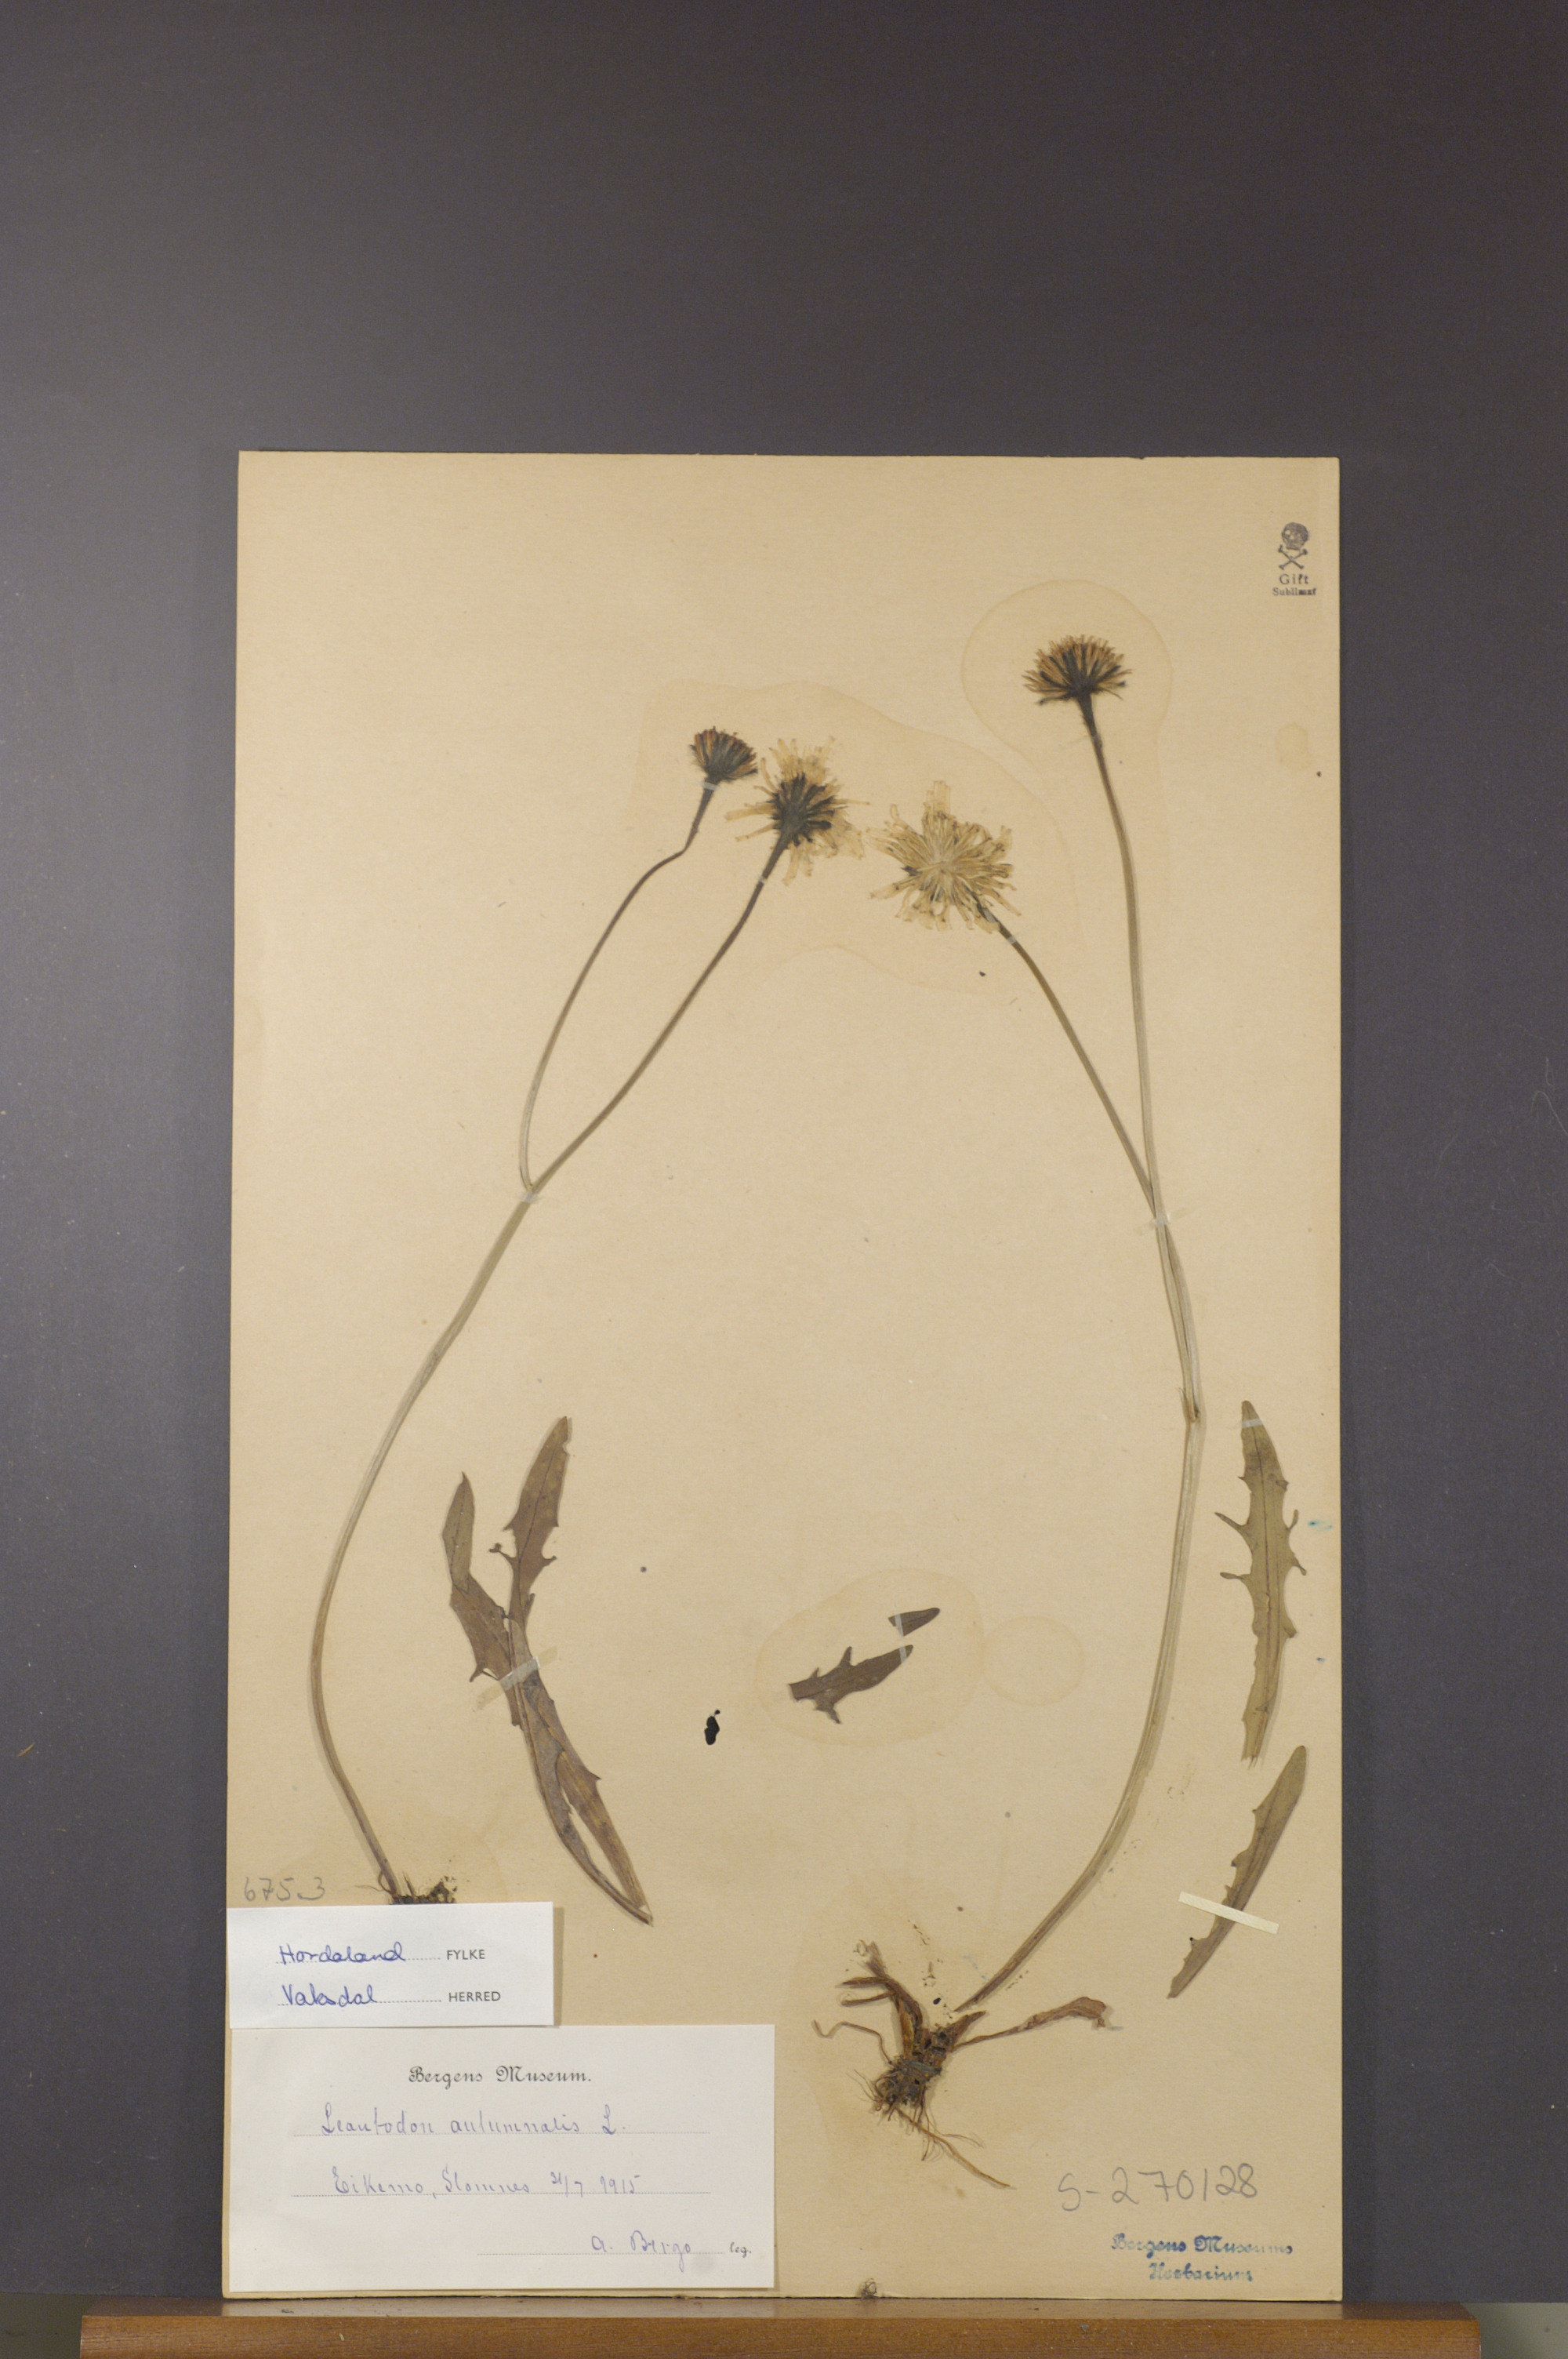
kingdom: Plantae
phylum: Tracheophyta
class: Magnoliopsida
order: Asterales
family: Asteraceae
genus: Scorzoneroides
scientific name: Scorzoneroides autumnalis
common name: Autumn hawkbit
